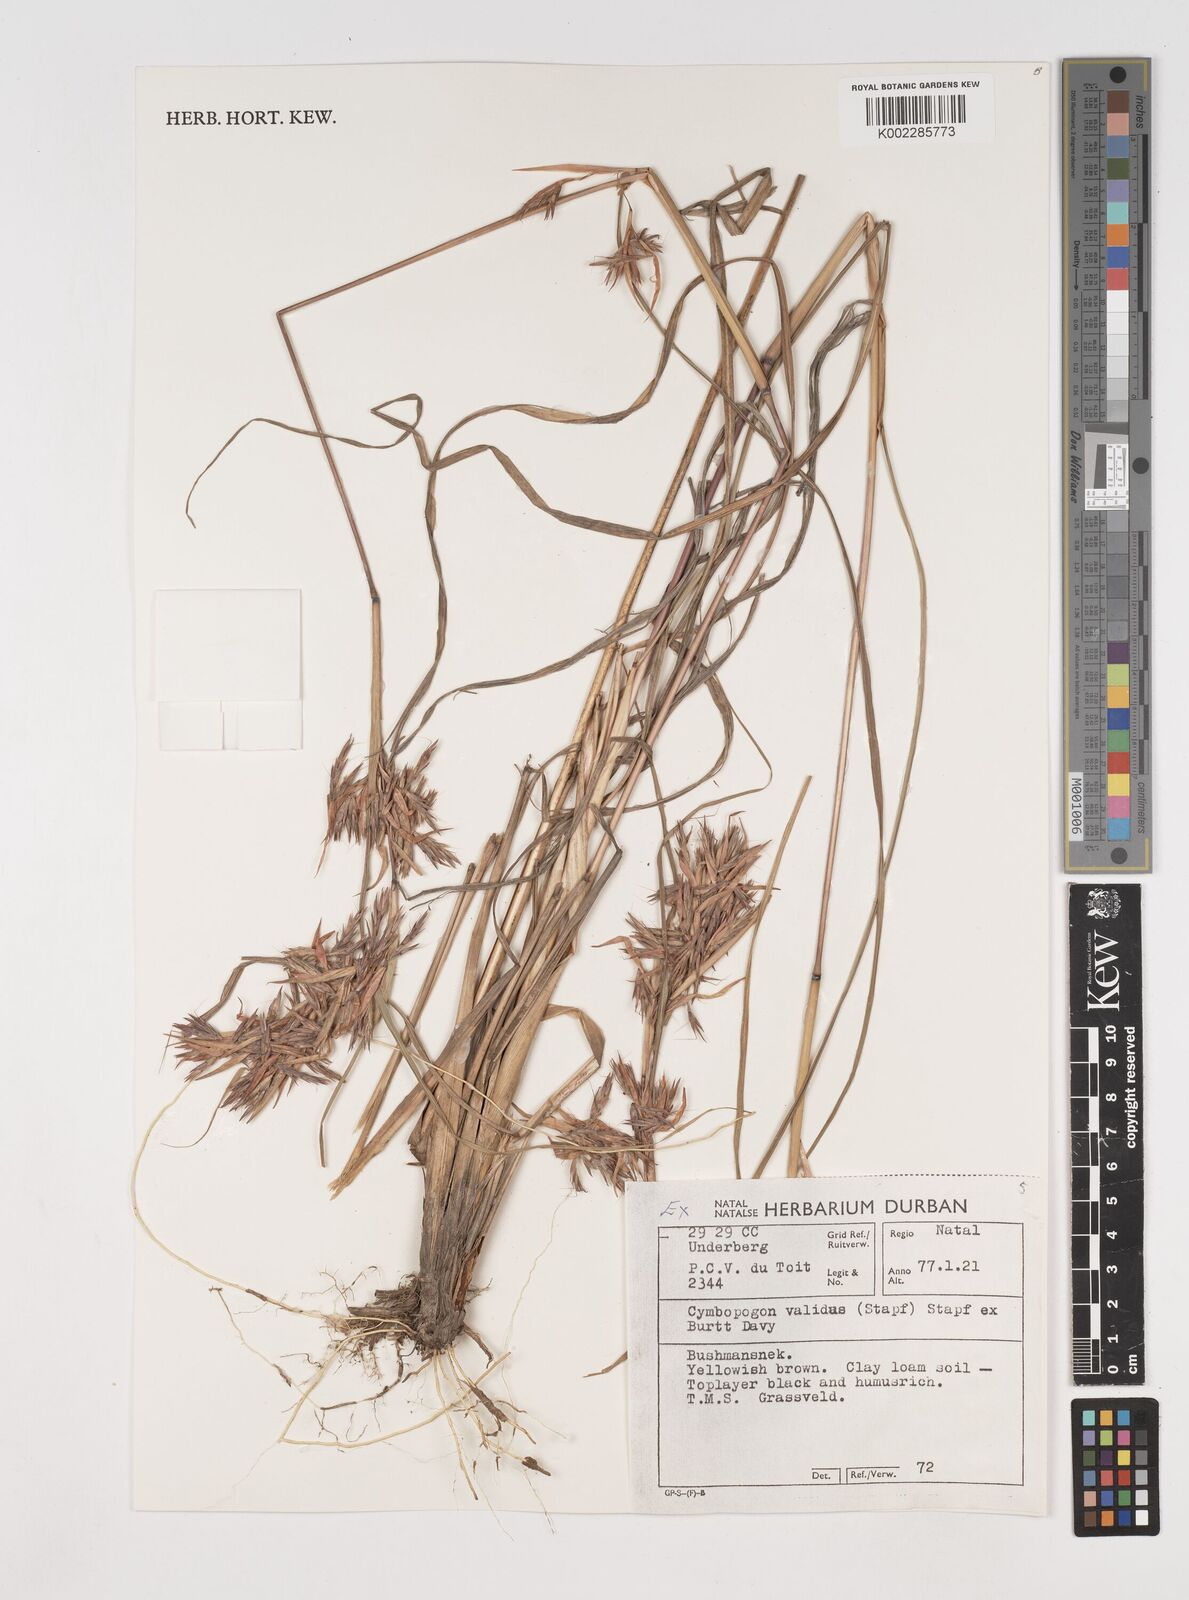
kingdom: Plantae
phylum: Tracheophyta
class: Liliopsida
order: Poales
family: Poaceae
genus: Cymbopogon
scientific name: Cymbopogon nardus
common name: Giant turpentine grass
